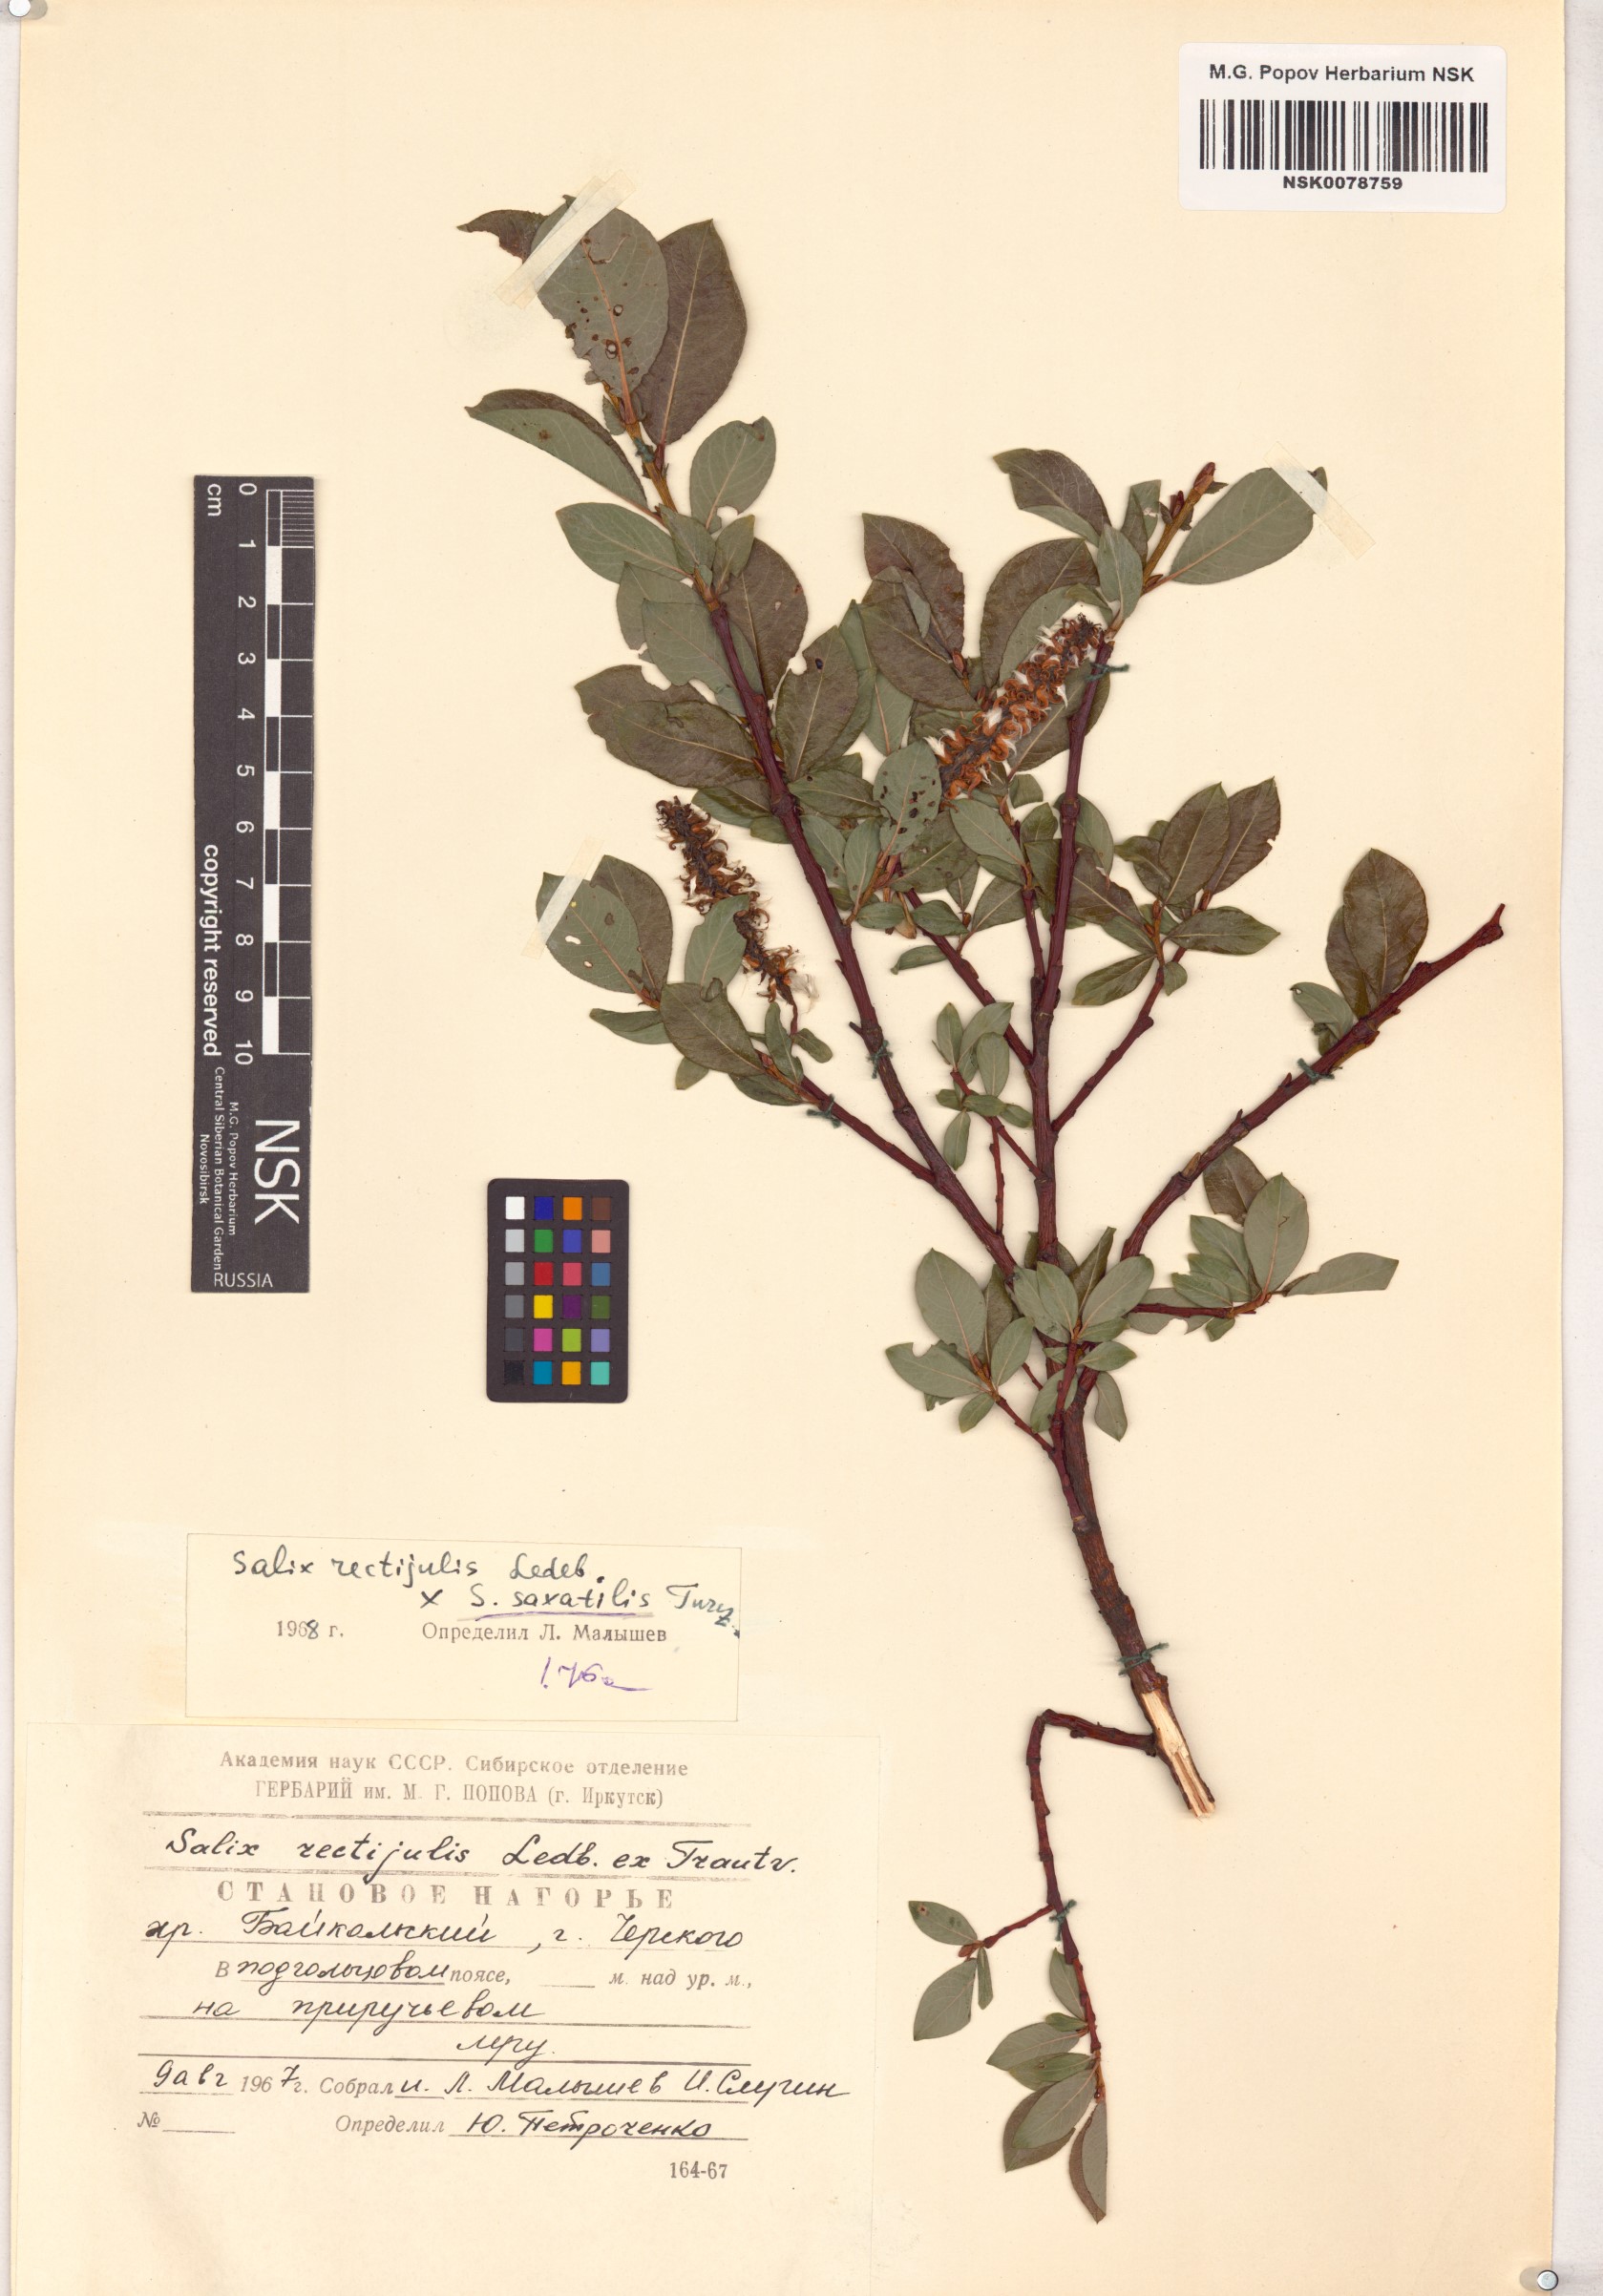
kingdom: Plantae
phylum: Tracheophyta
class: Magnoliopsida
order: Malpighiales
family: Salicaceae
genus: Salix
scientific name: Salix
